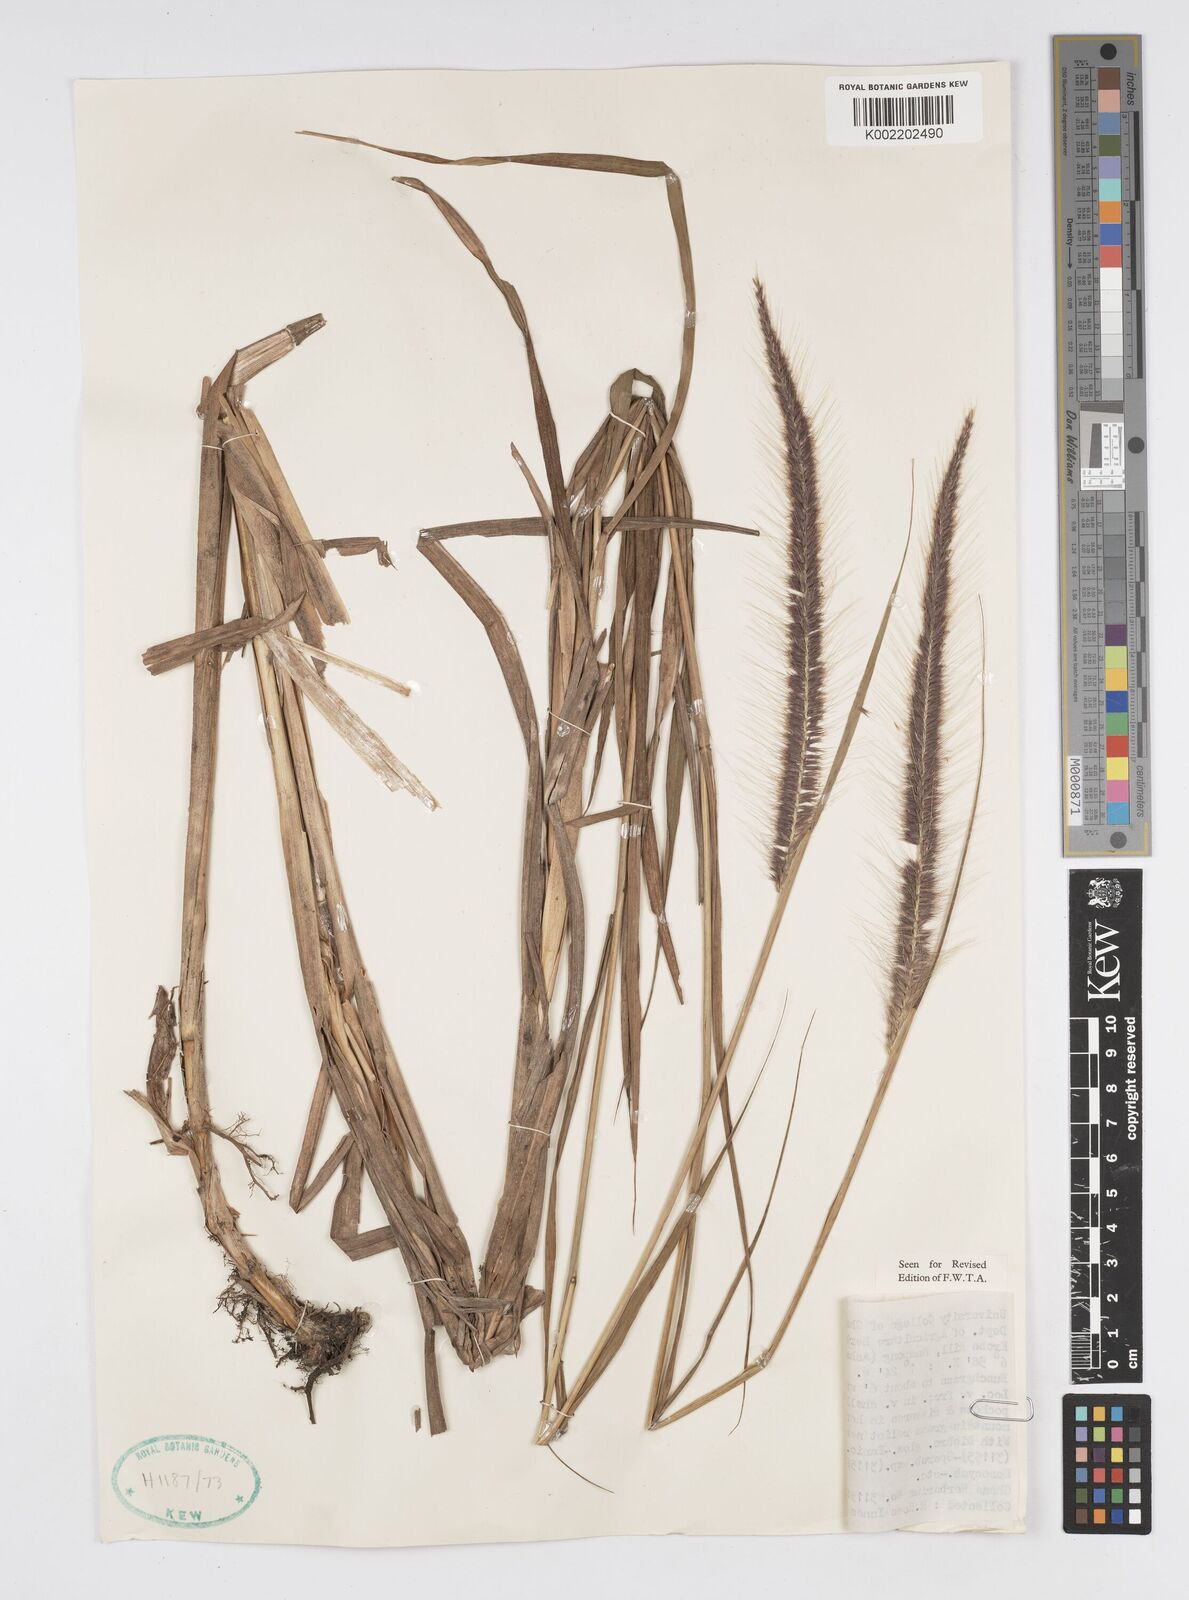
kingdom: Plantae
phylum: Tracheophyta
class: Liliopsida
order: Poales
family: Poaceae
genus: Setaria
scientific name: Setaria parviflora
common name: Knotroot bristle-grass
